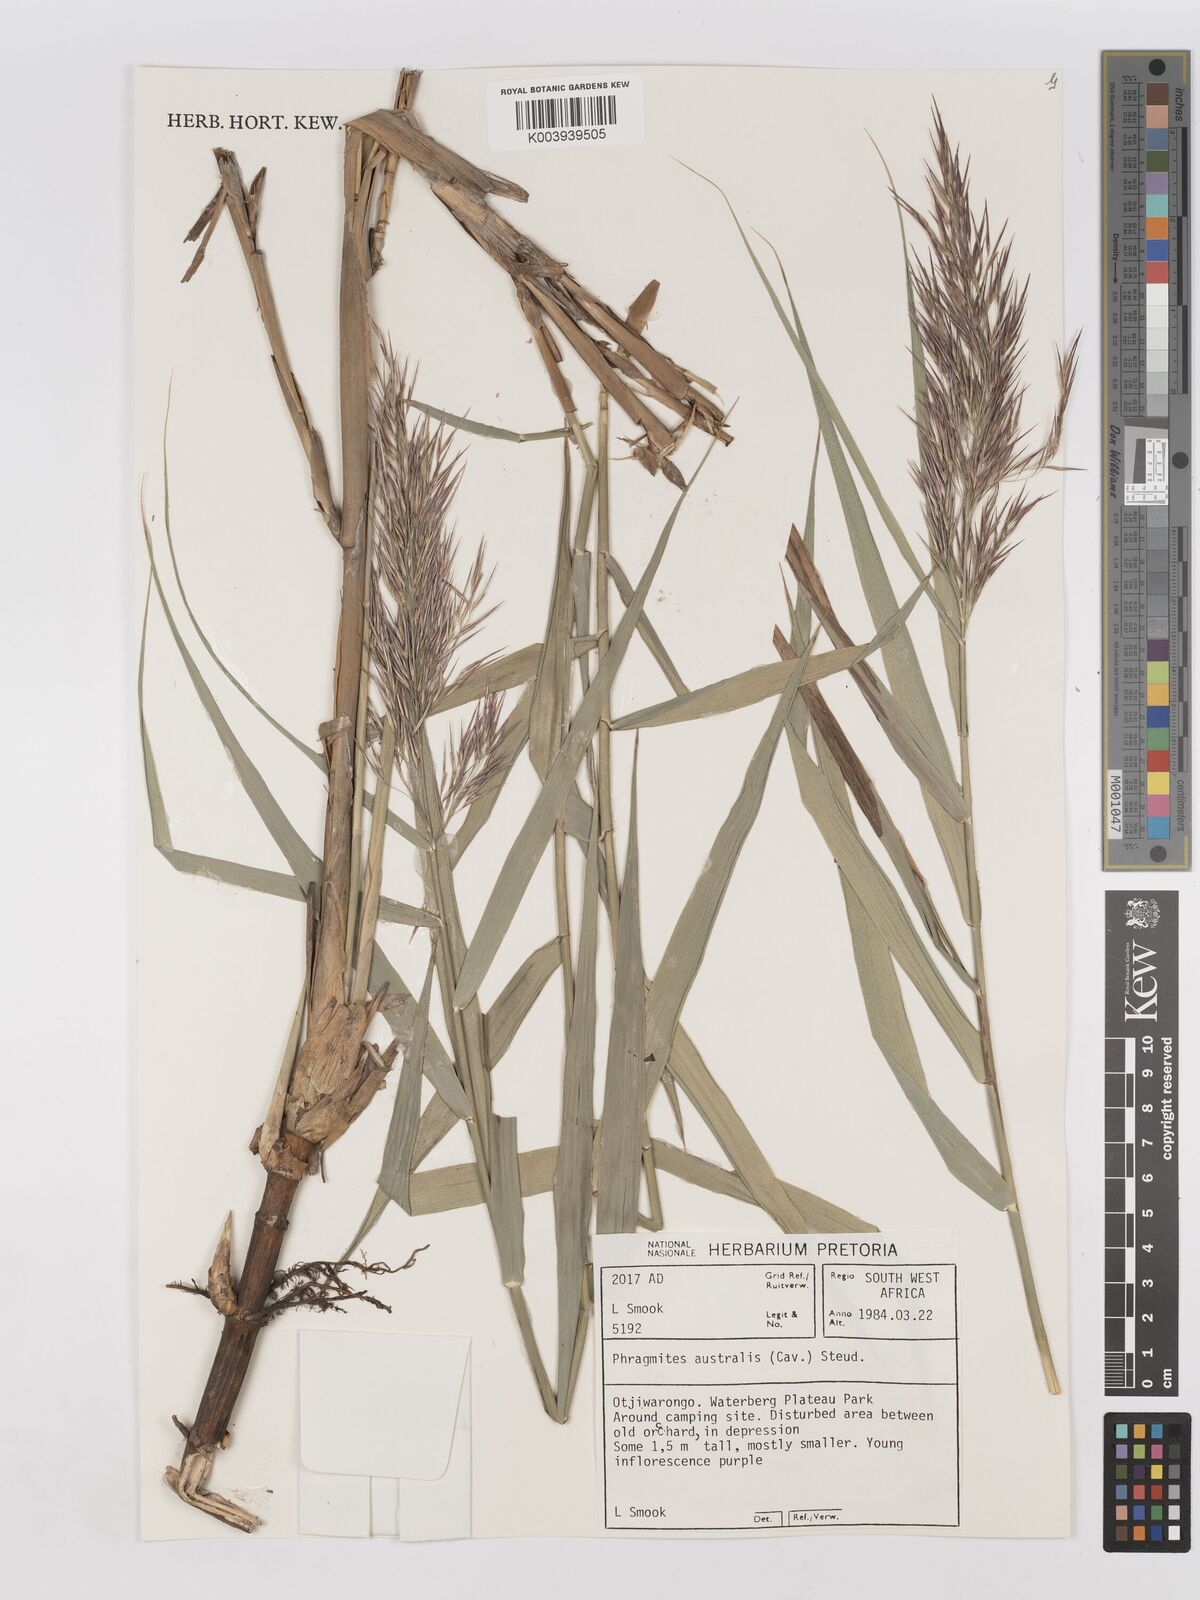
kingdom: Plantae
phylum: Tracheophyta
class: Liliopsida
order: Poales
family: Poaceae
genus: Phragmites
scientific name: Phragmites australis
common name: Common reed
